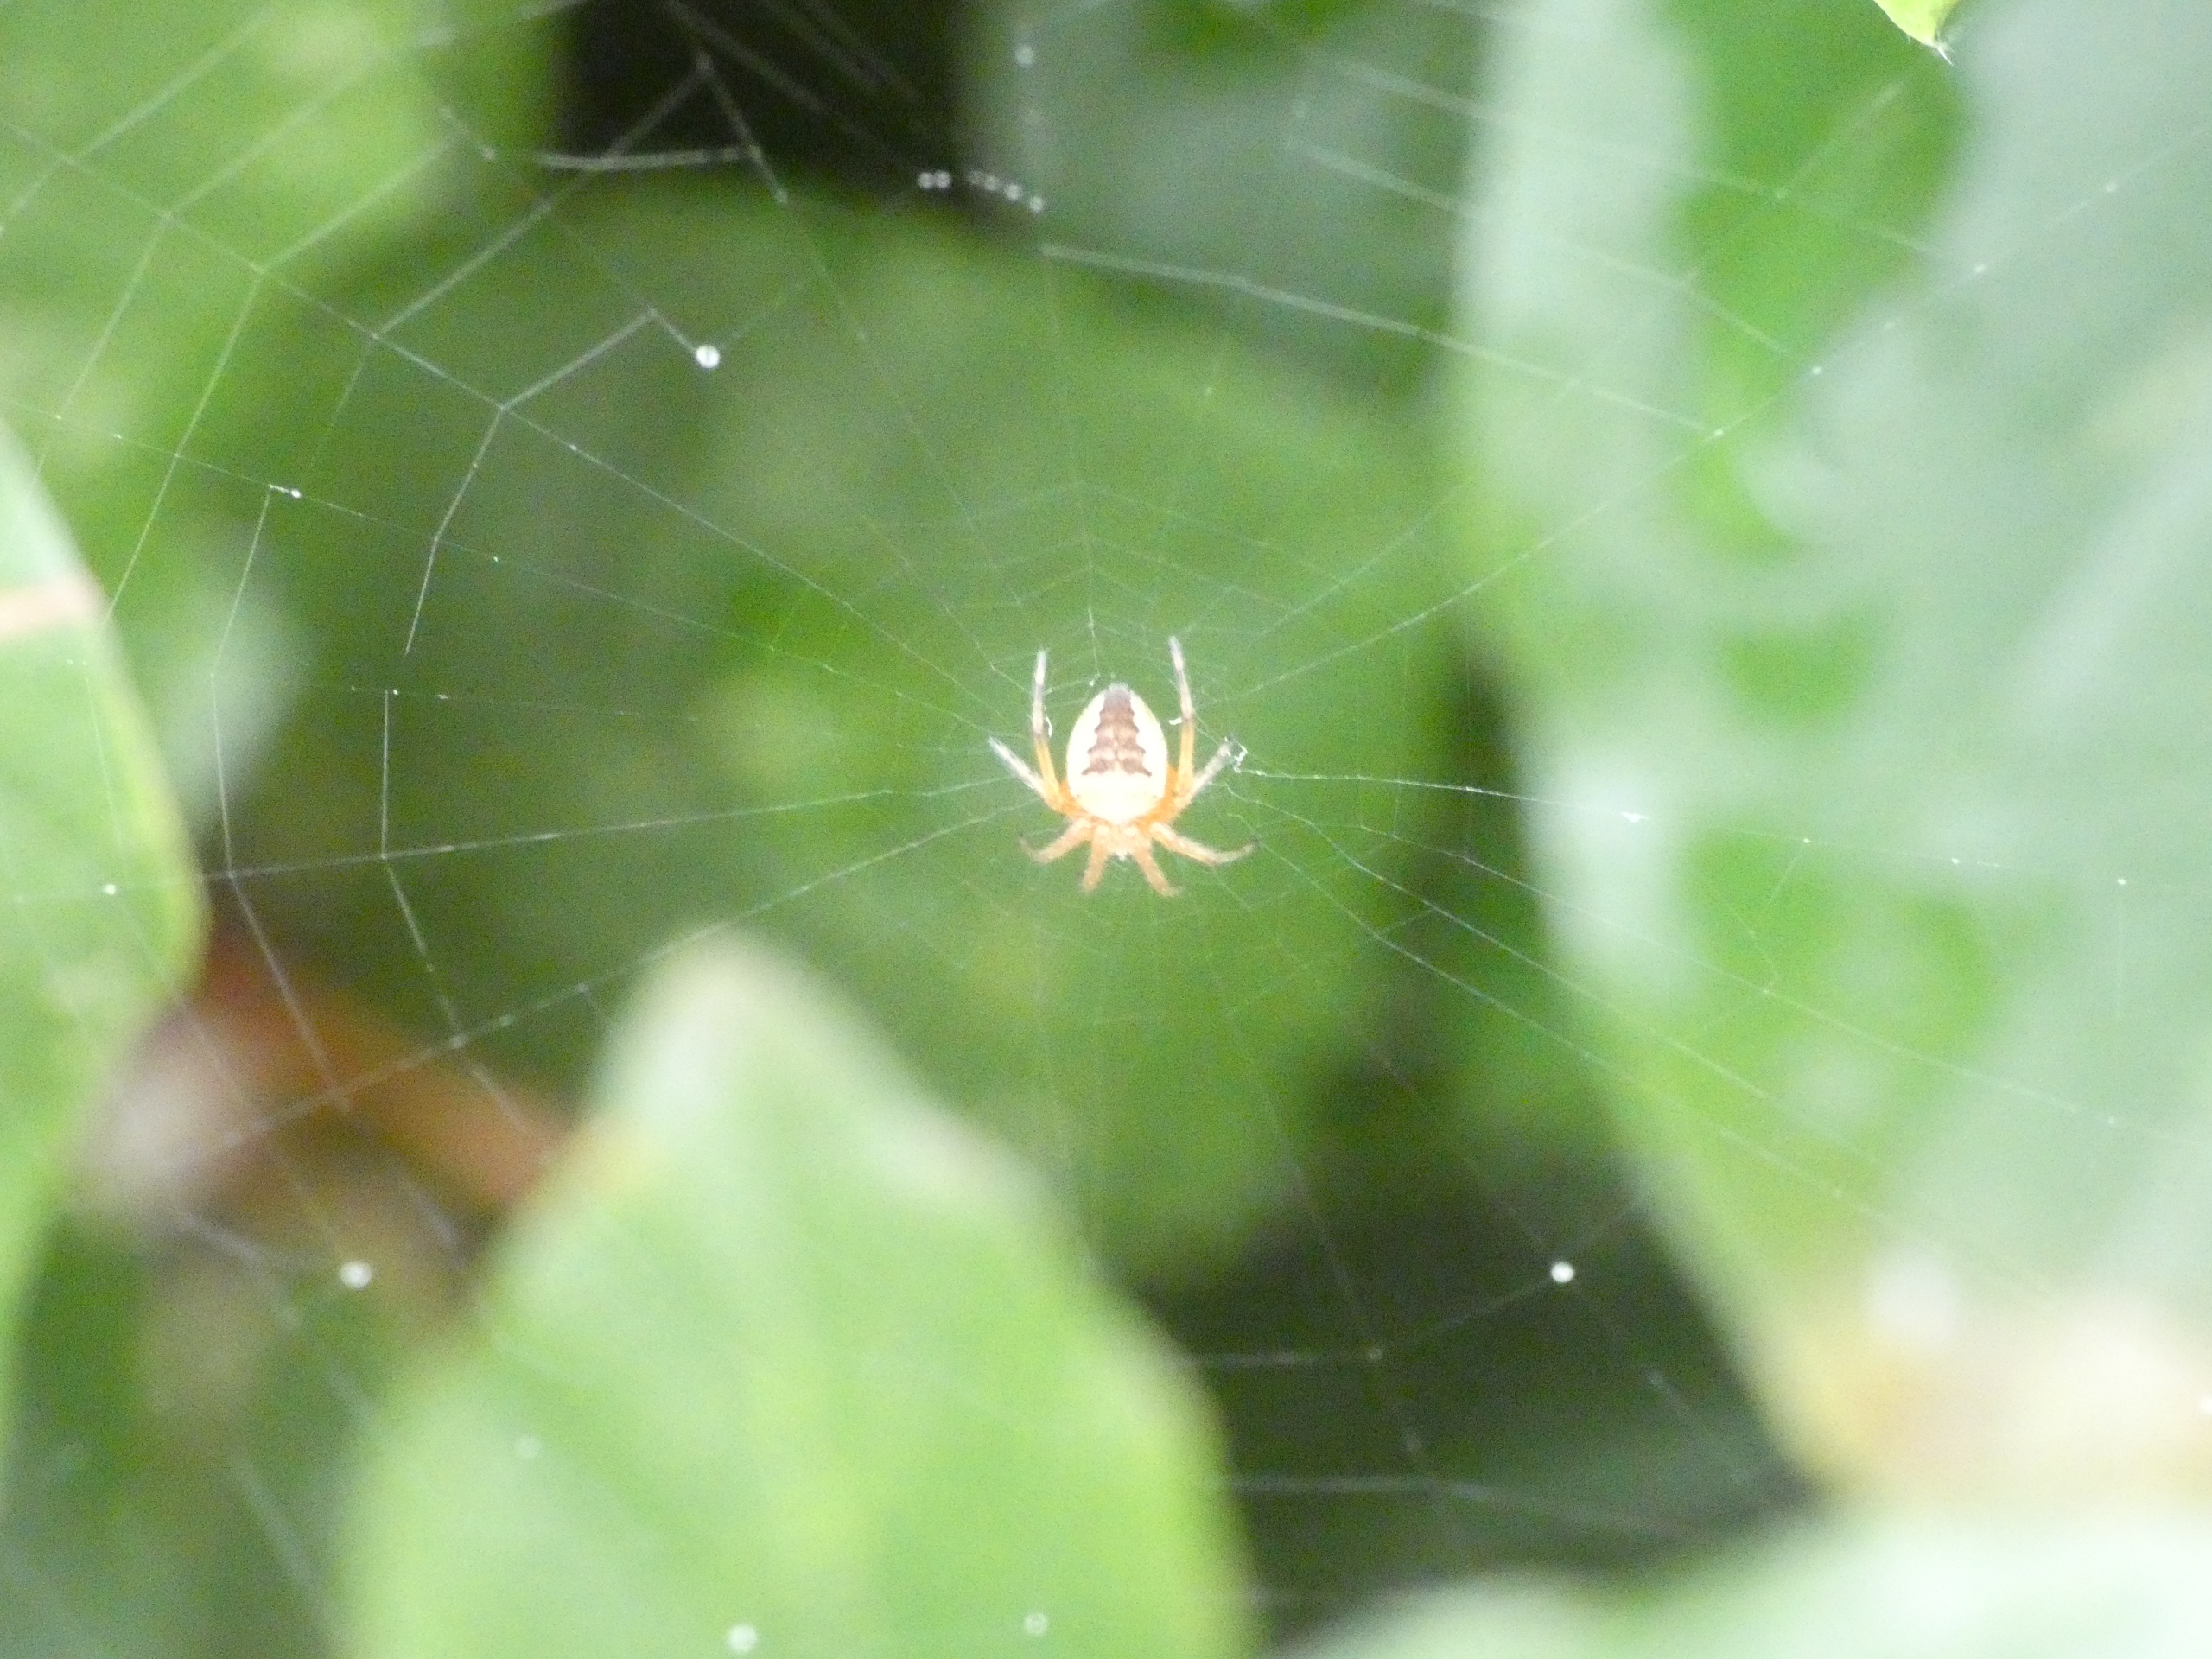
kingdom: Animalia
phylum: Arthropoda
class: Arachnida
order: Araneae
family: Araneidae
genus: Araneus
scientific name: Araneus diadematus
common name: Korsedderkop
